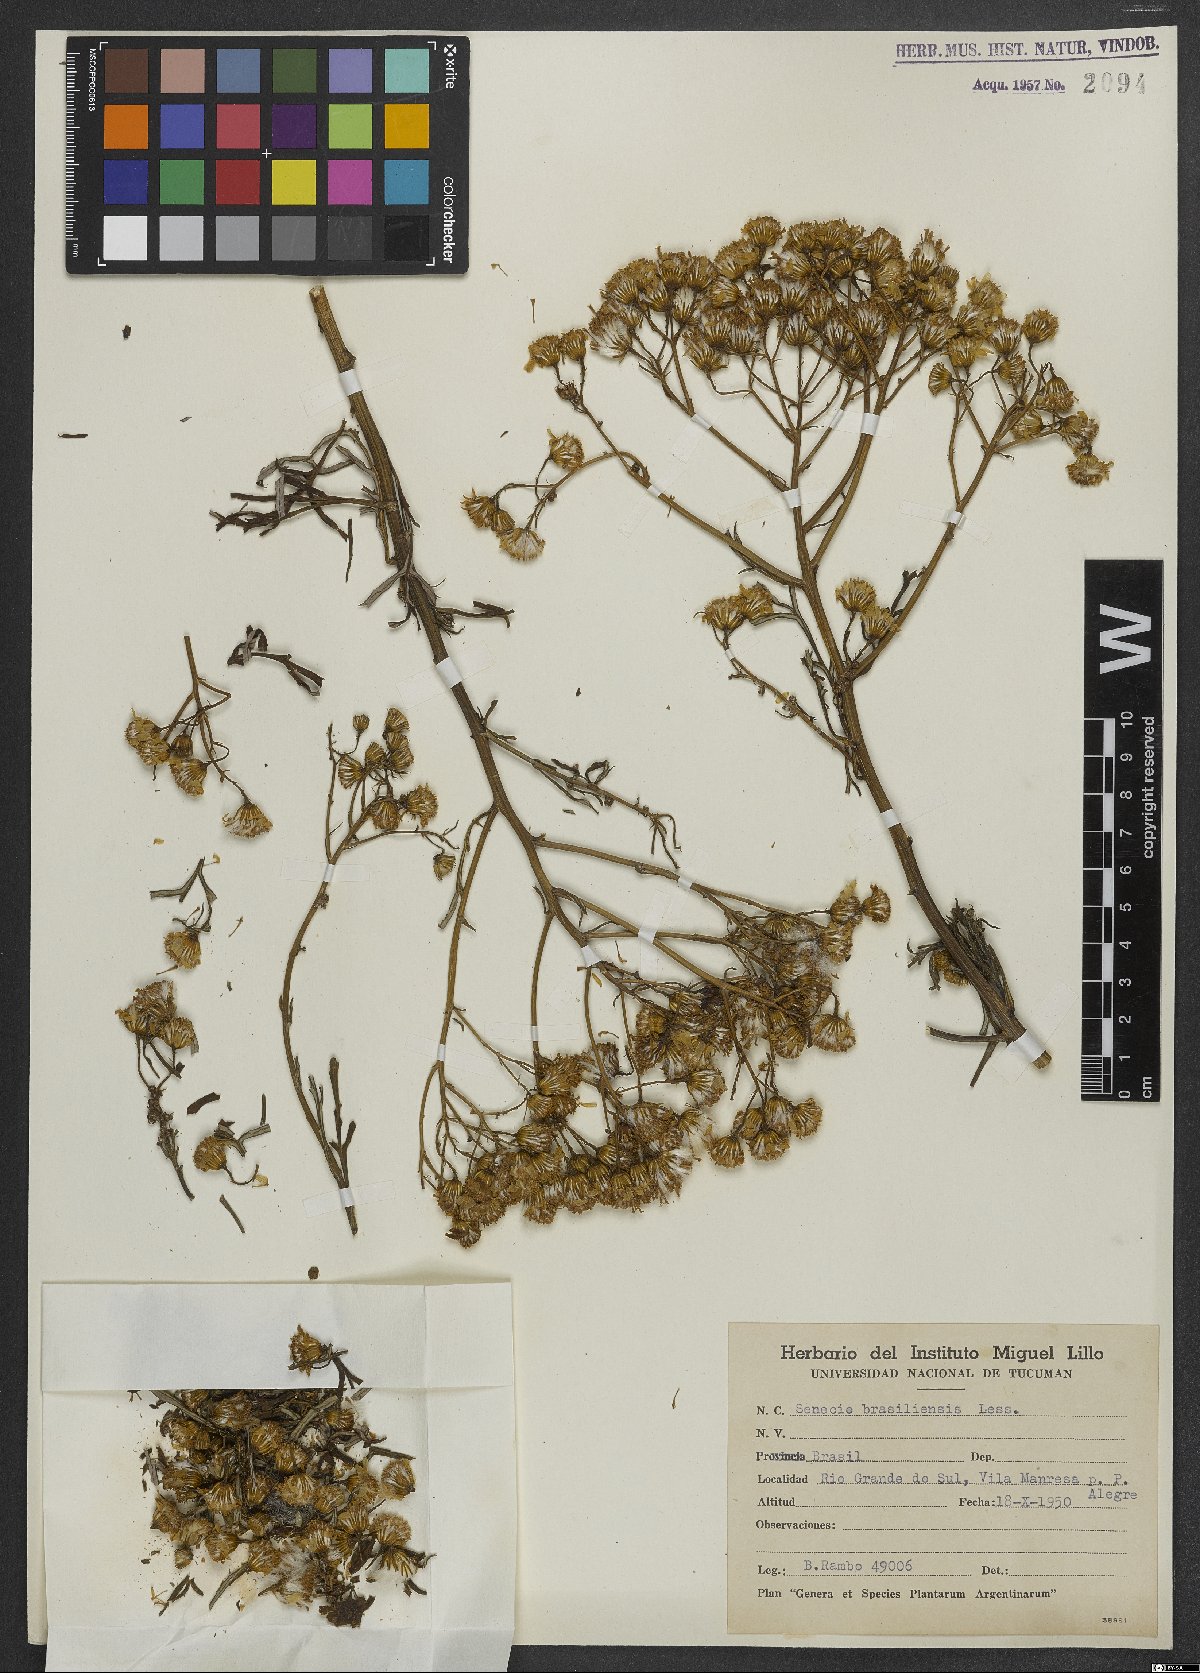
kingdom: Plantae
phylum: Tracheophyta
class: Magnoliopsida
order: Asterales
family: Asteraceae
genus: Senecio
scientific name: Senecio brasiliensis
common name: Hemp-leaf ragwort
